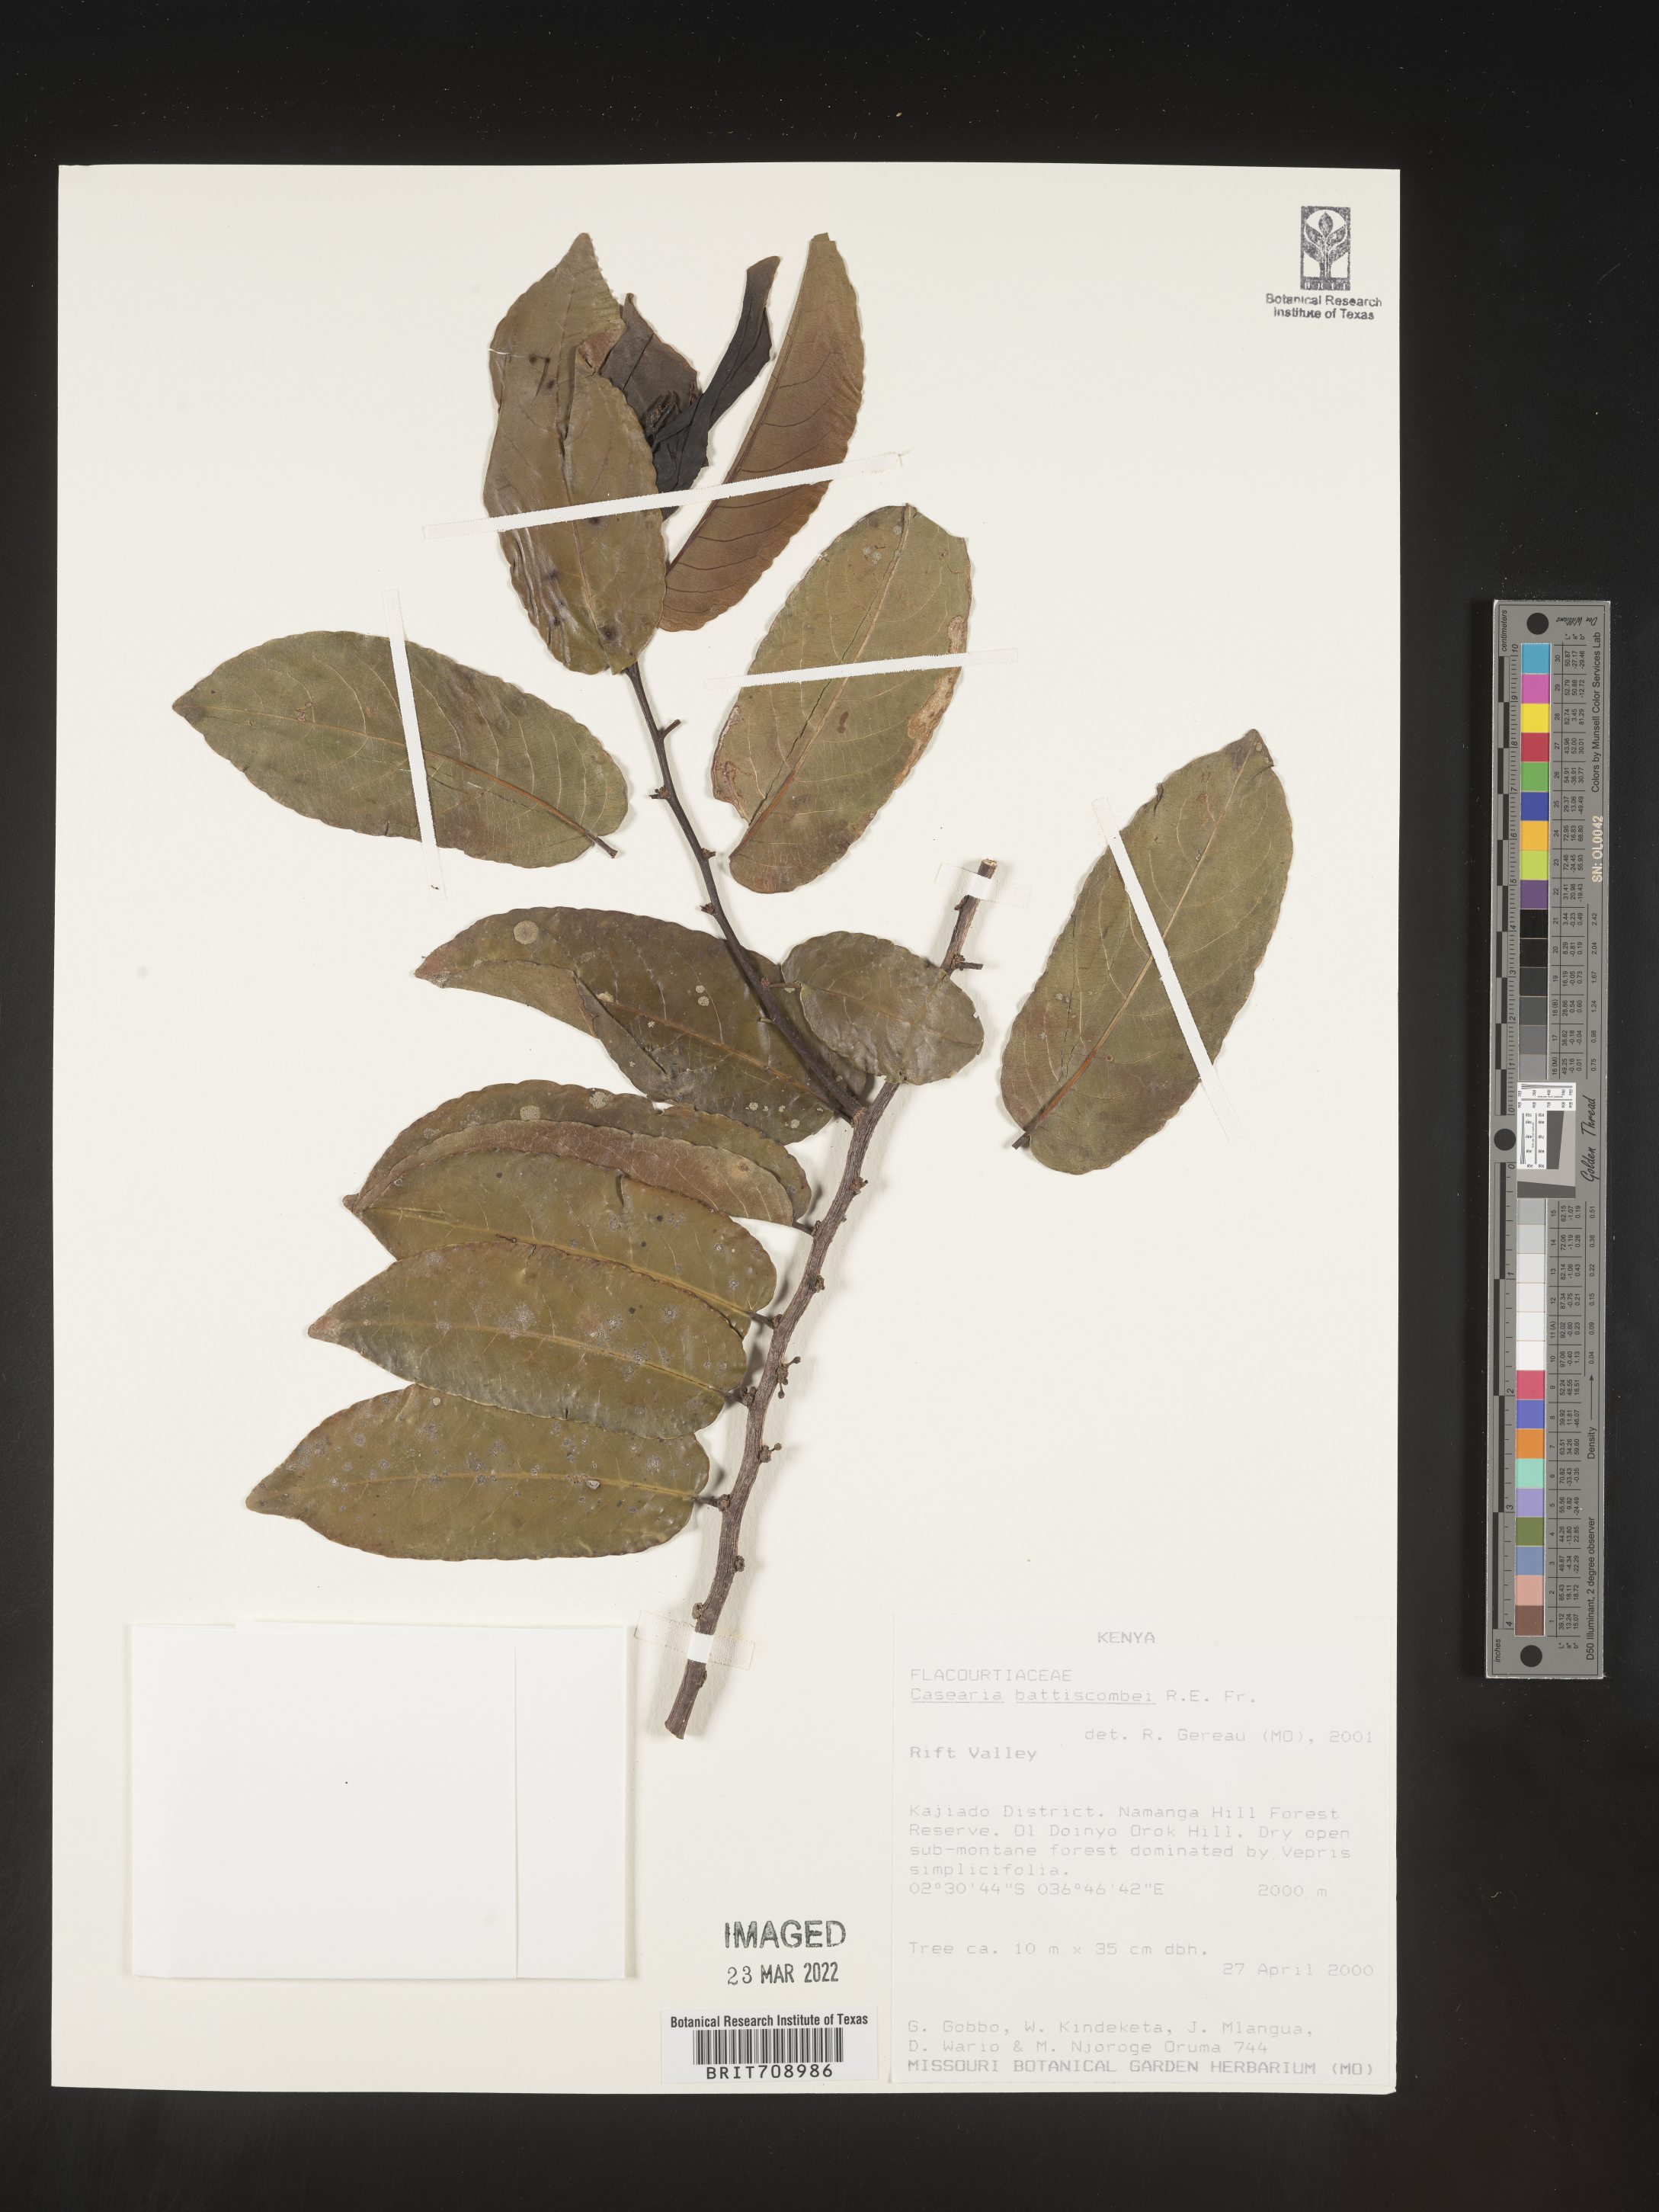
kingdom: Plantae
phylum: Tracheophyta
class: Magnoliopsida
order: Malpighiales
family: Salicaceae
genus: Casearia
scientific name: Casearia
